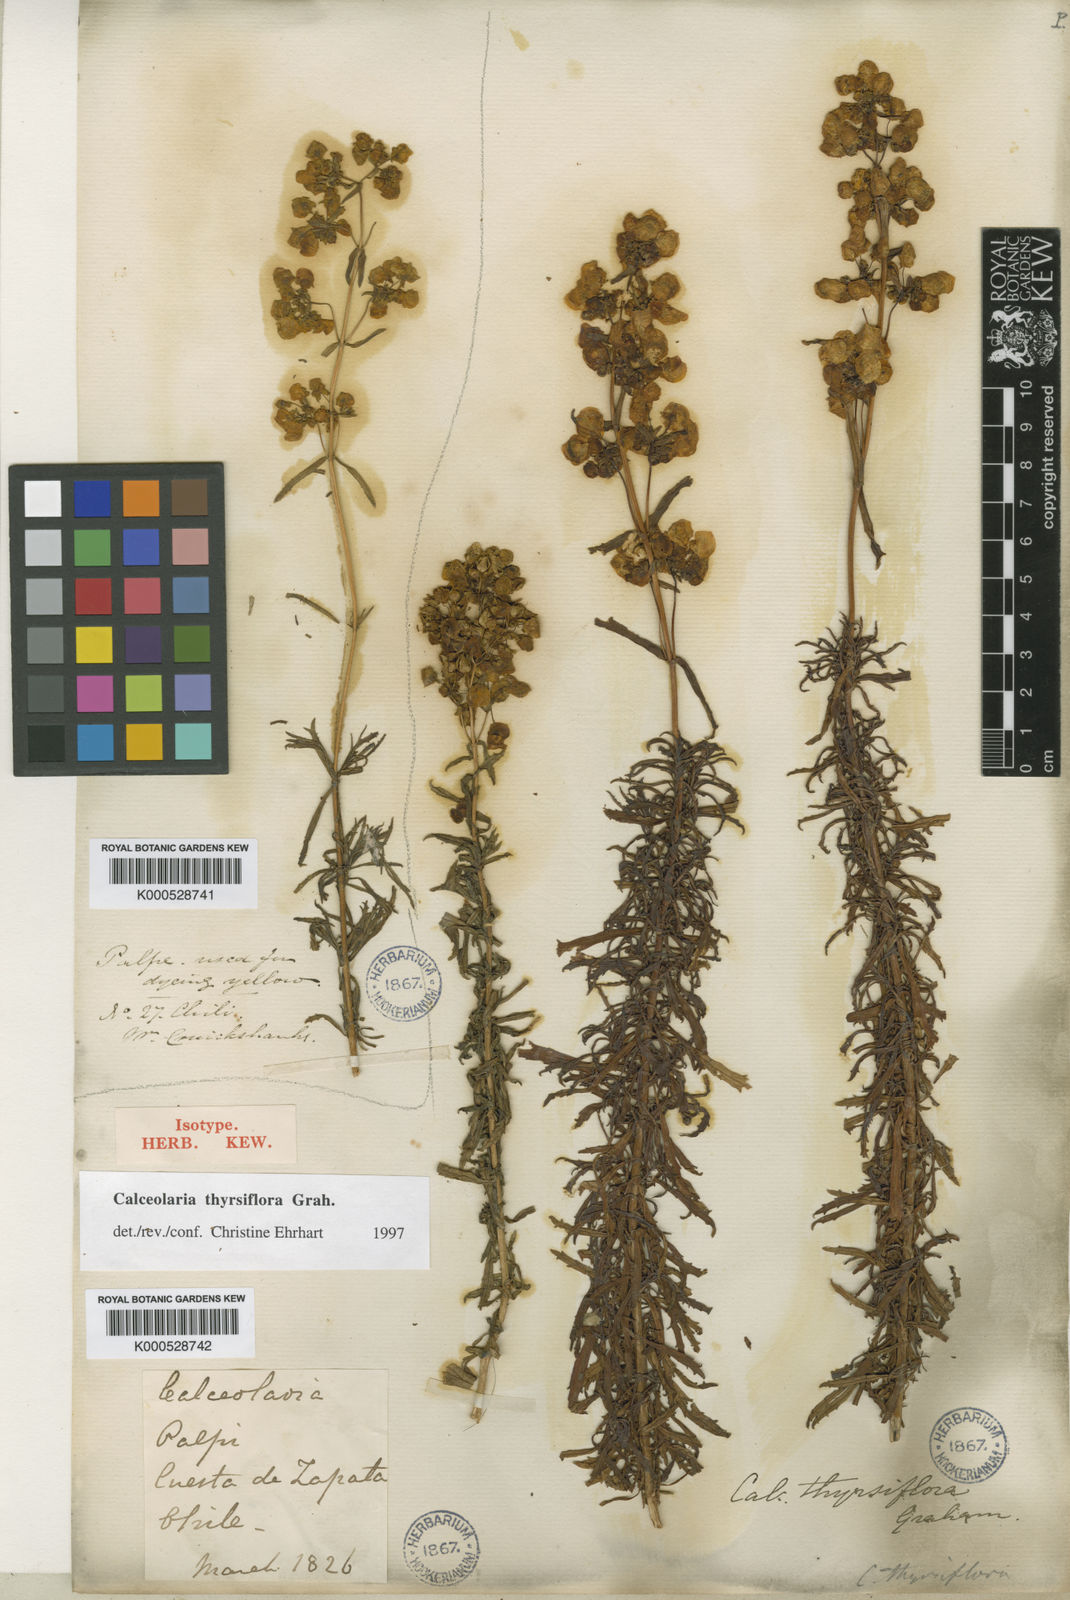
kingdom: Plantae
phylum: Tracheophyta
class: Magnoliopsida
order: Lamiales
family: Calceolariaceae
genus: Calceolaria
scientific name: Calceolaria thyrsiflora
